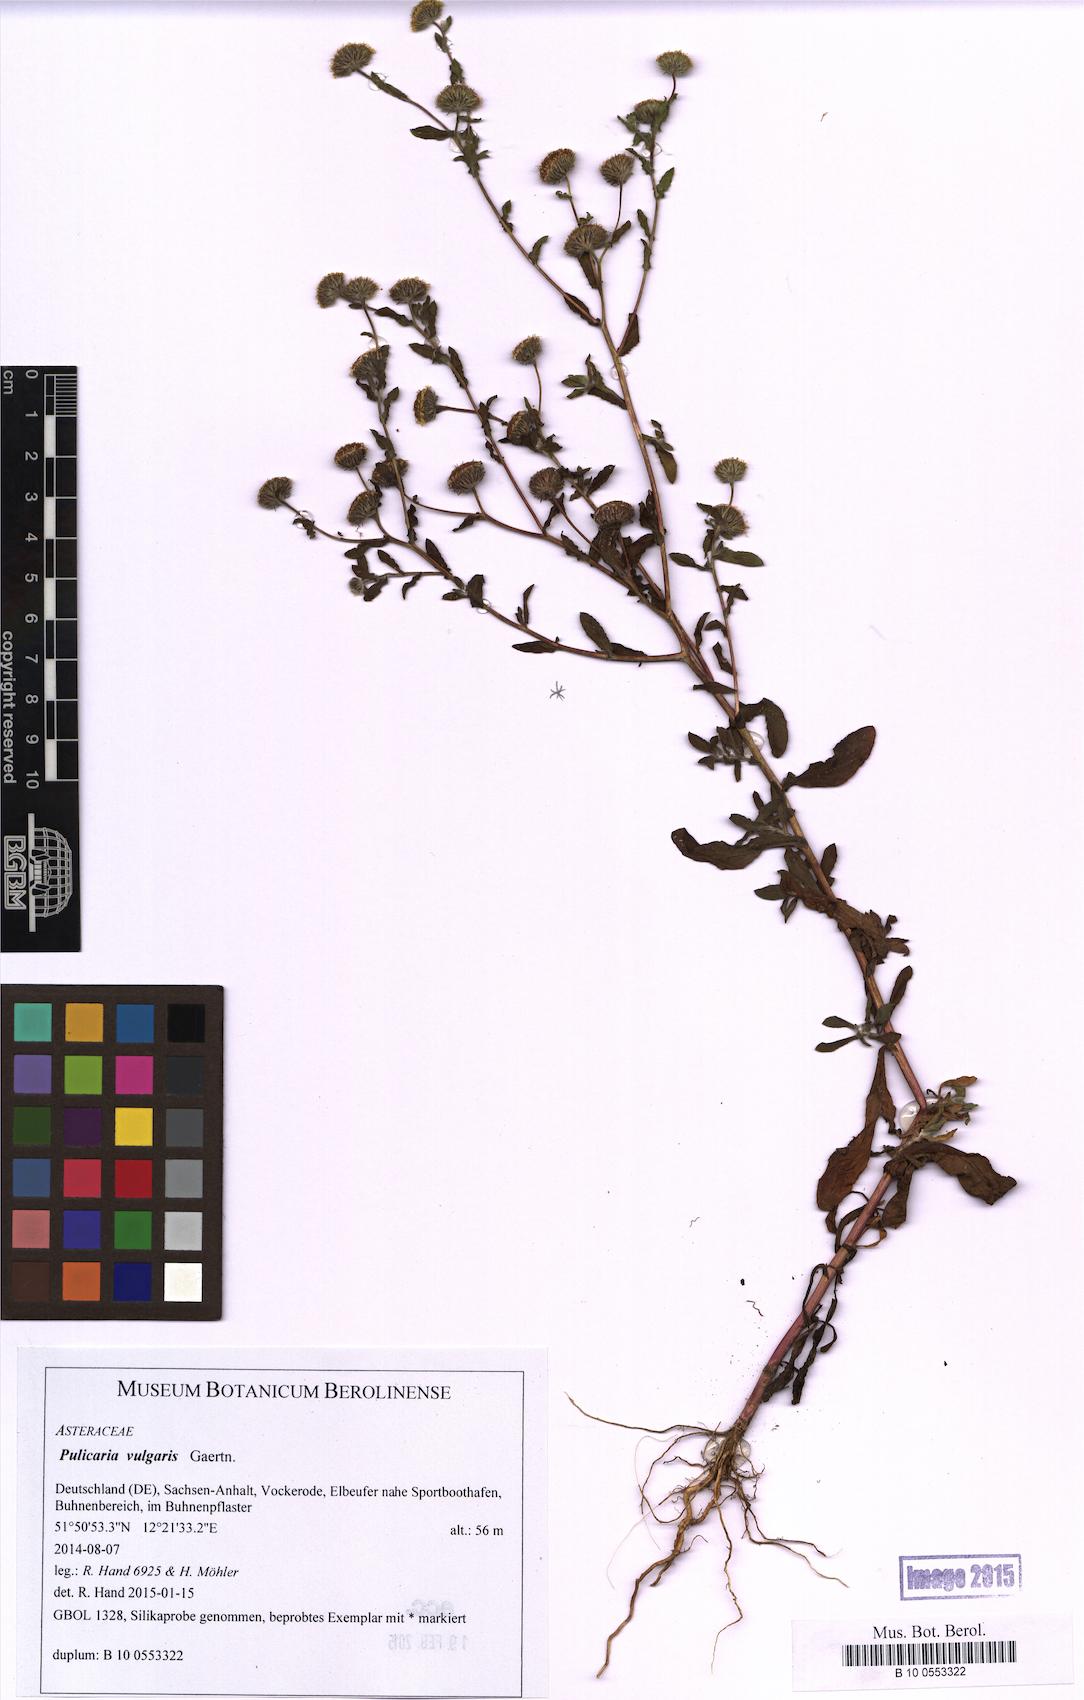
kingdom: Plantae
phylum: Tracheophyta
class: Magnoliopsida
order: Asterales
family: Asteraceae
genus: Pulicaria
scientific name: Pulicaria vulgaris
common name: Small fleabane
